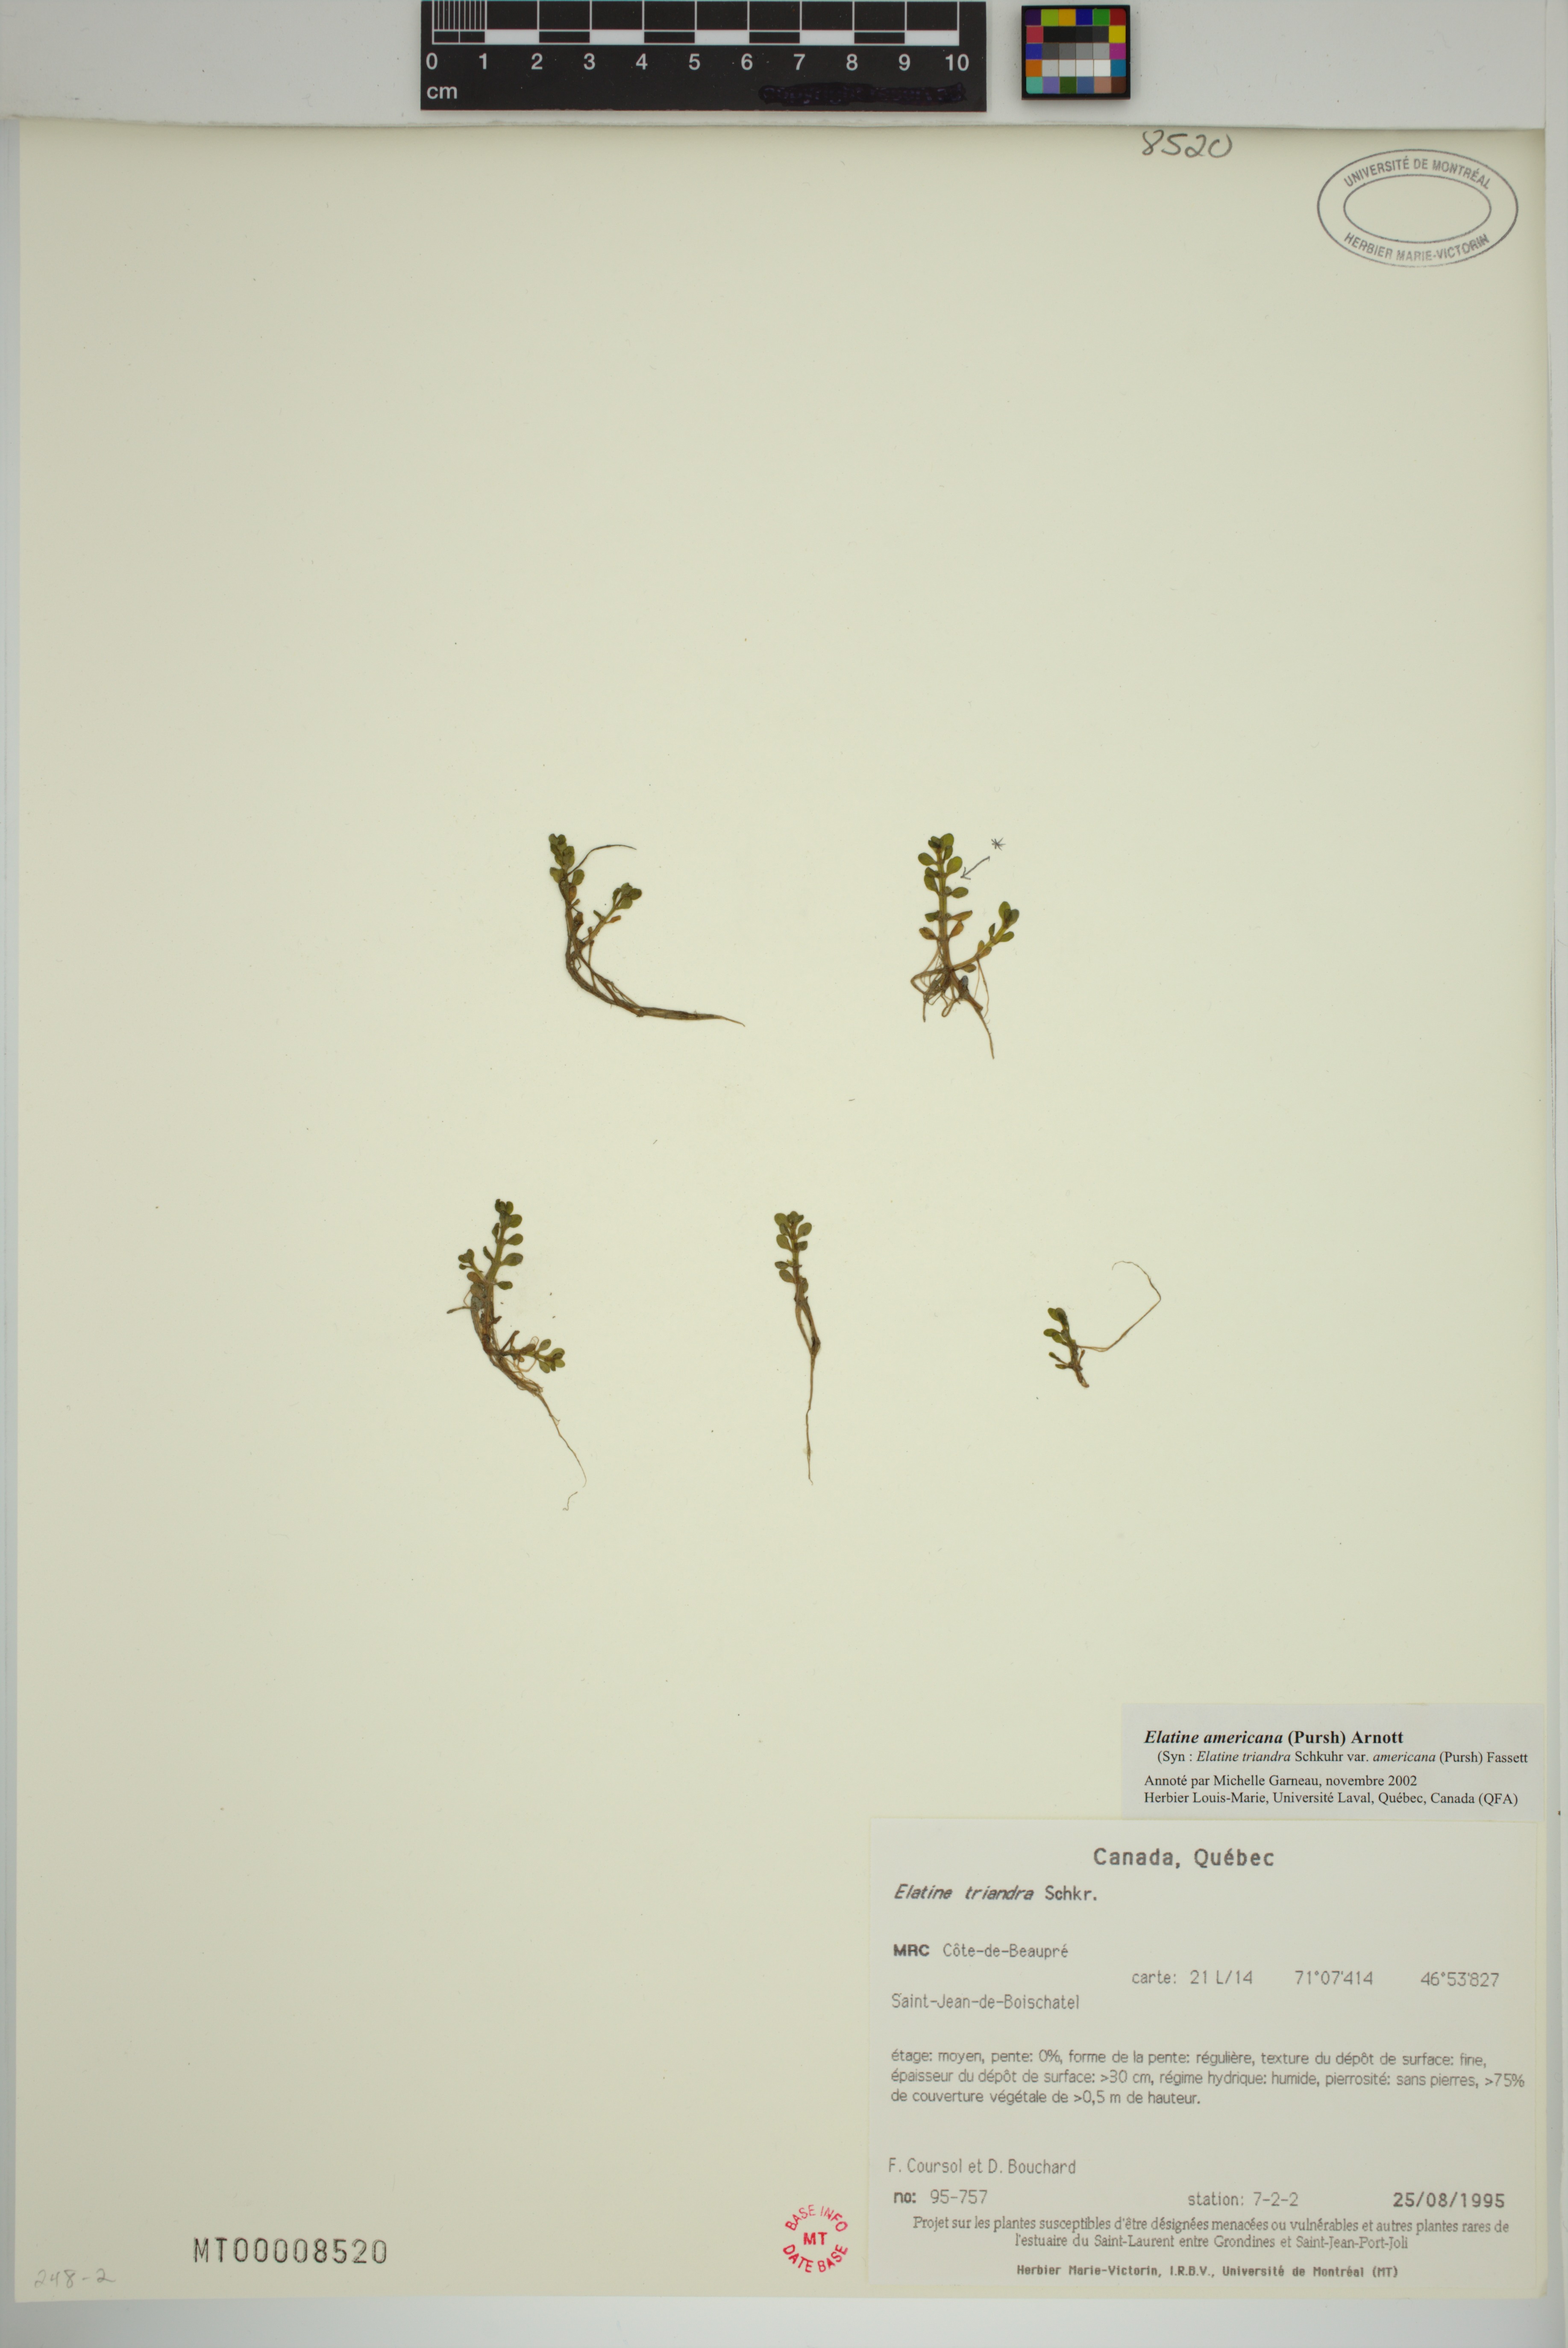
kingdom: Plantae
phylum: Tracheophyta
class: Magnoliopsida
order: Malpighiales
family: Elatinaceae
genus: Elatine
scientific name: Elatine americana
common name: American waterwort
